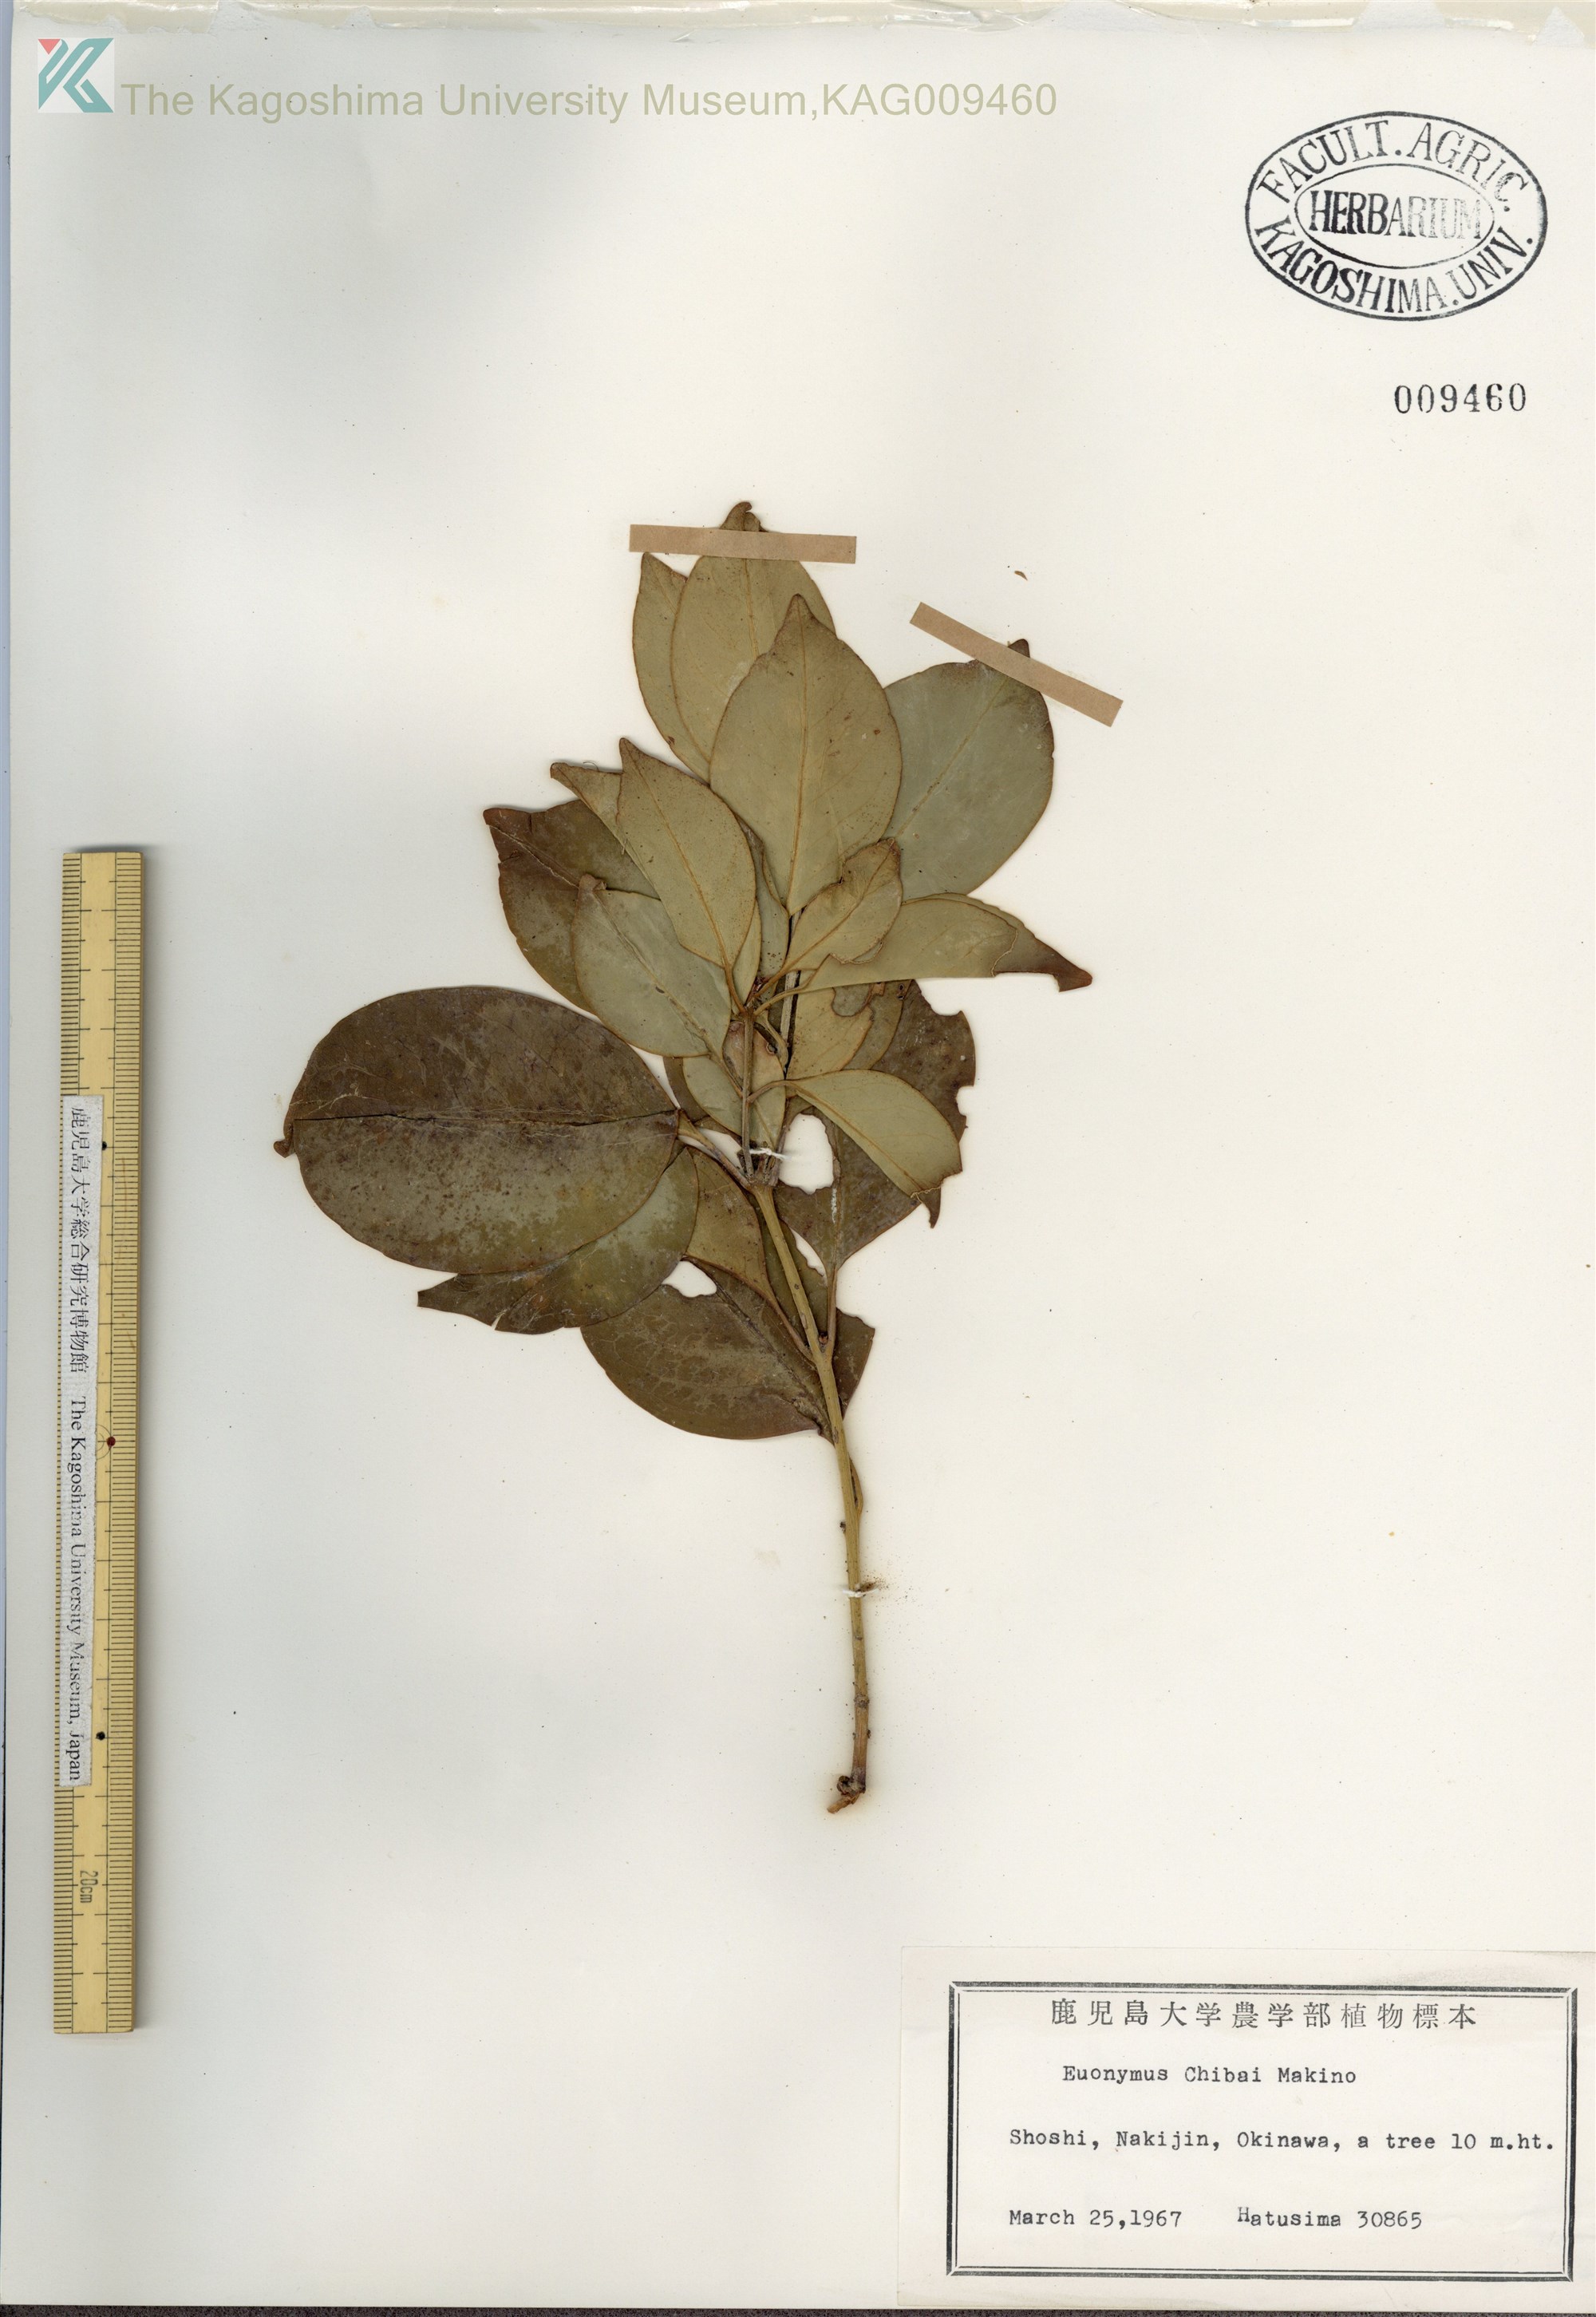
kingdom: Plantae
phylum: Tracheophyta
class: Magnoliopsida
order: Celastrales
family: Celastraceae
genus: Euonymus
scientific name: Euonymus chibae
